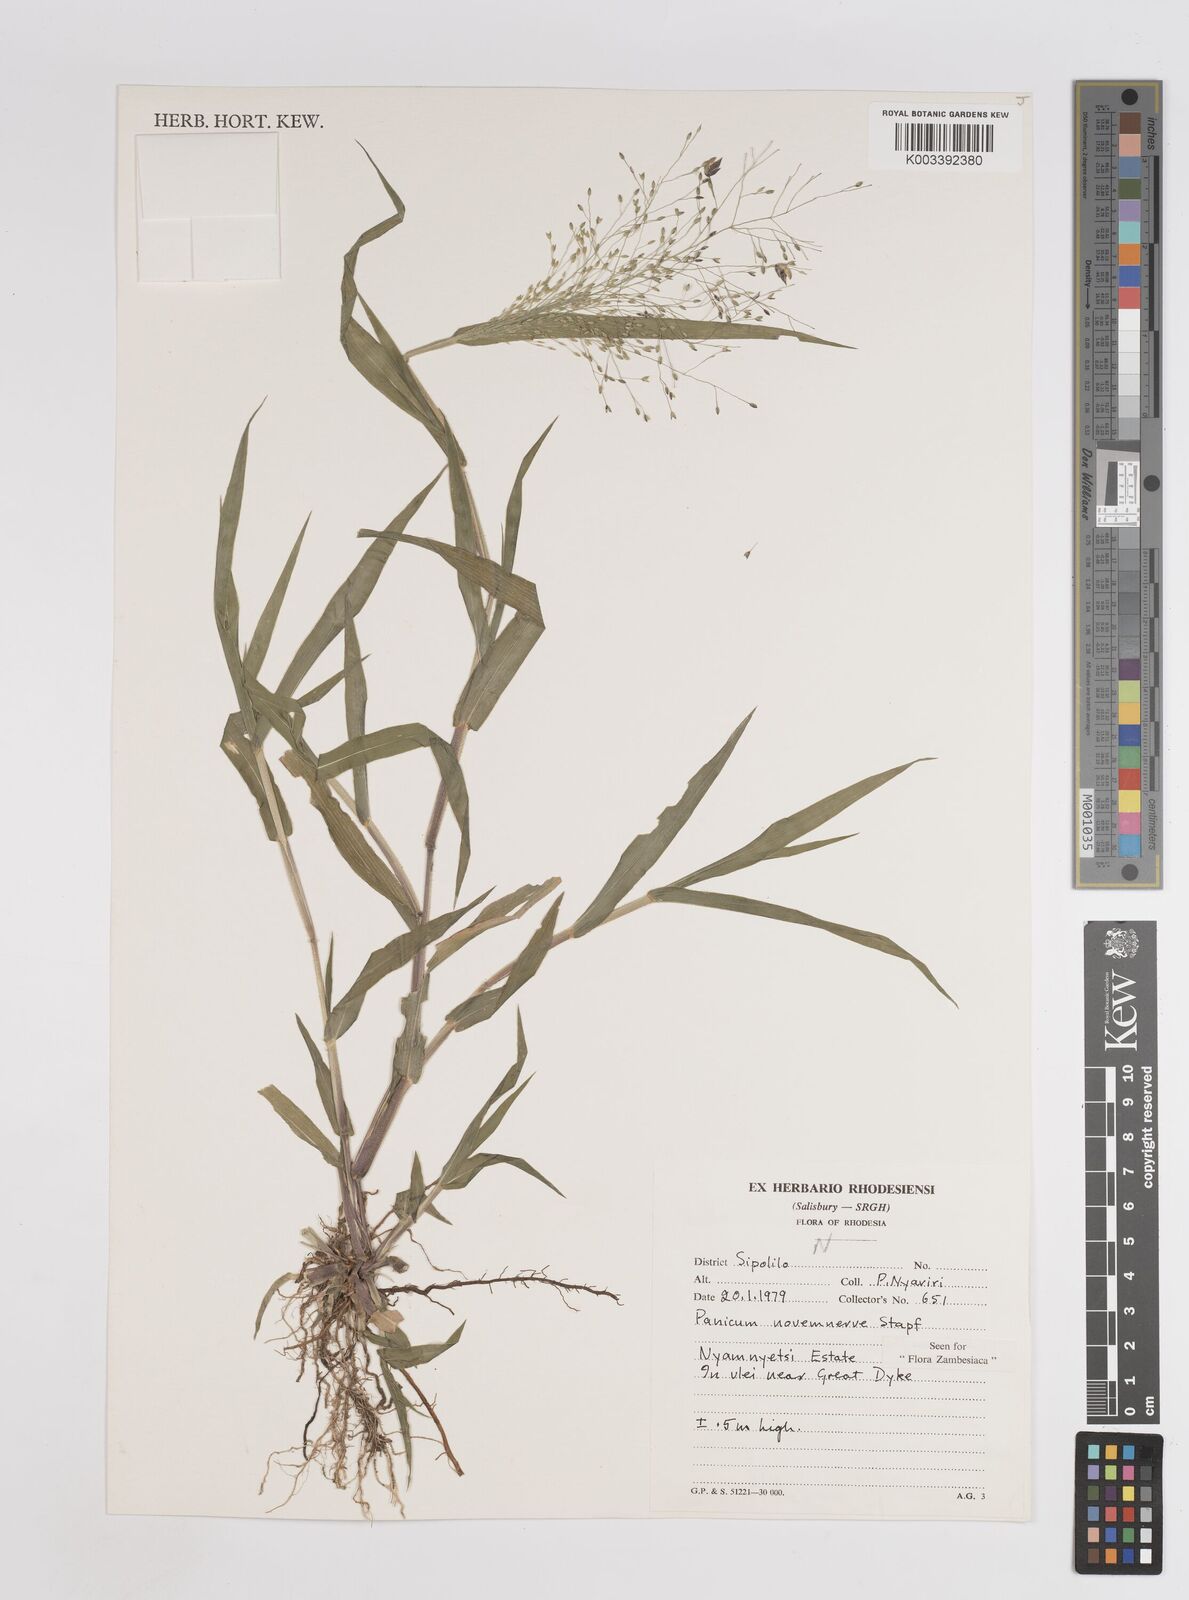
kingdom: Plantae
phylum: Tracheophyta
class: Liliopsida
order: Poales
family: Poaceae
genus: Panicum
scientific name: Panicum novemnerve
